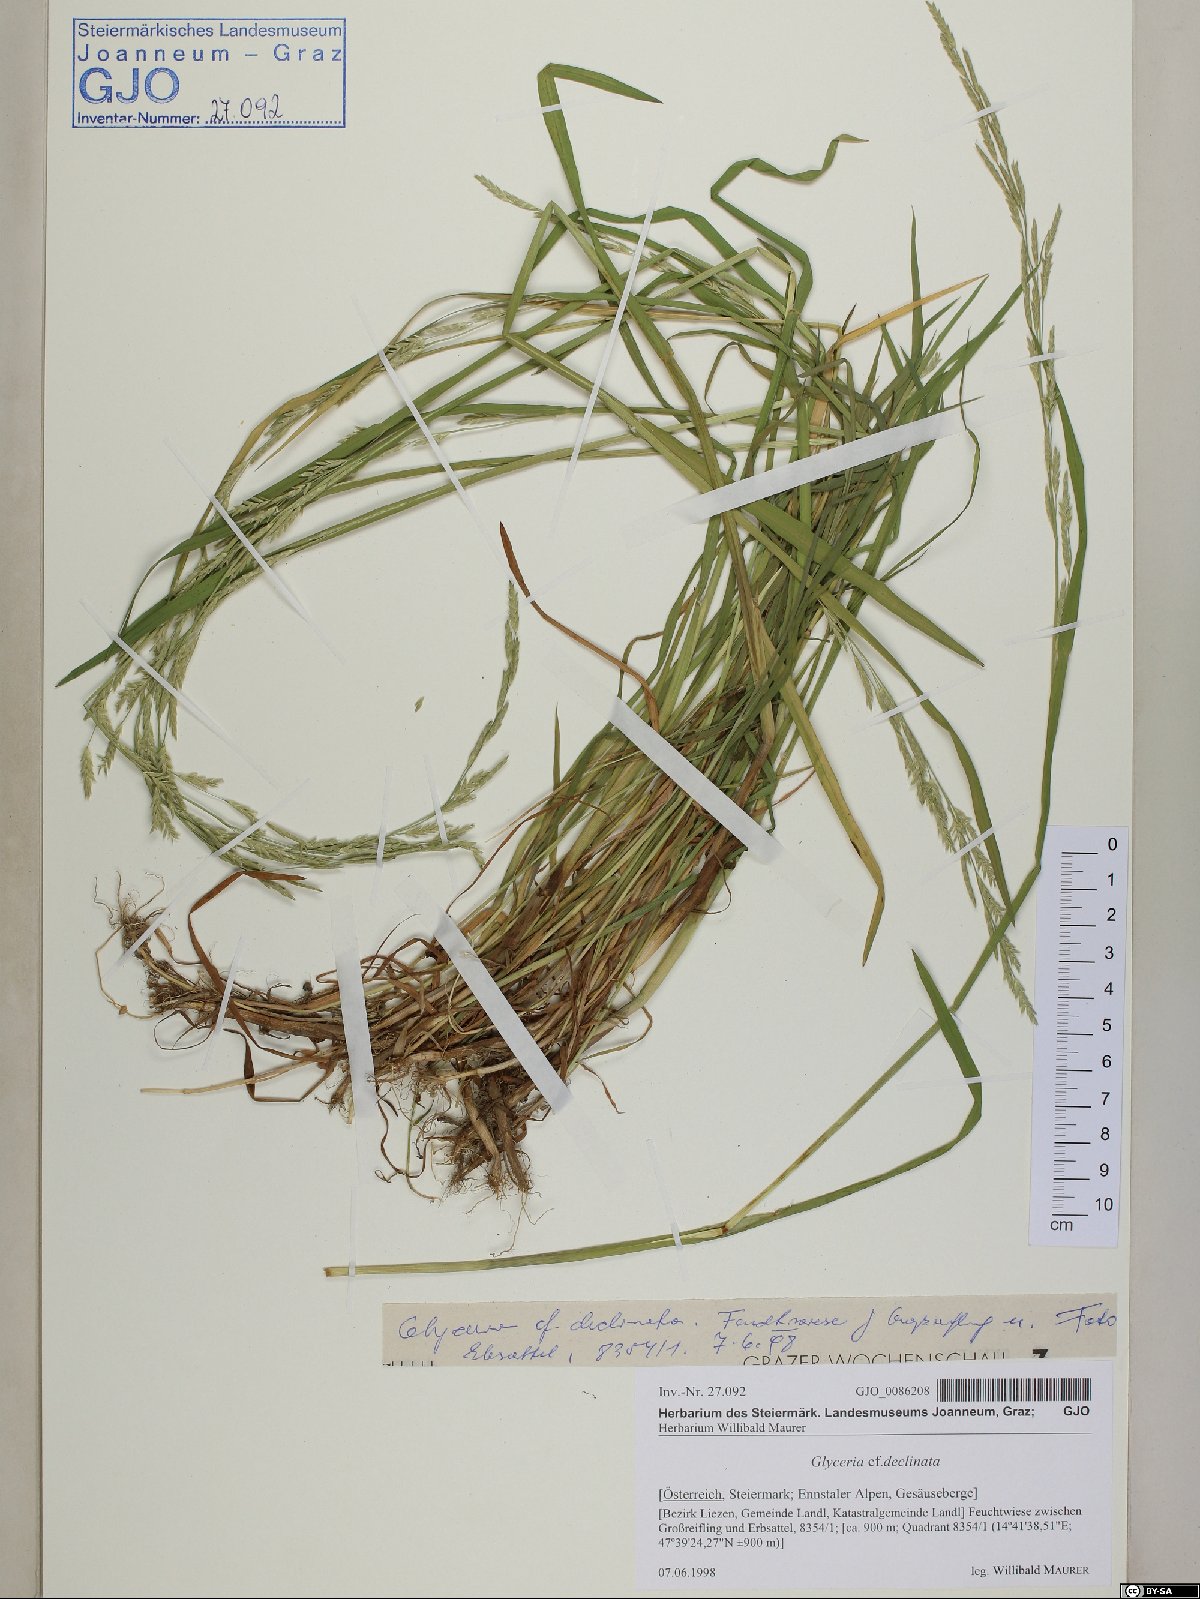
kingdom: Plantae
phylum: Tracheophyta
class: Liliopsida
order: Poales
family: Poaceae
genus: Glyceria
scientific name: Glyceria declinata
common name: Small sweet-grass
